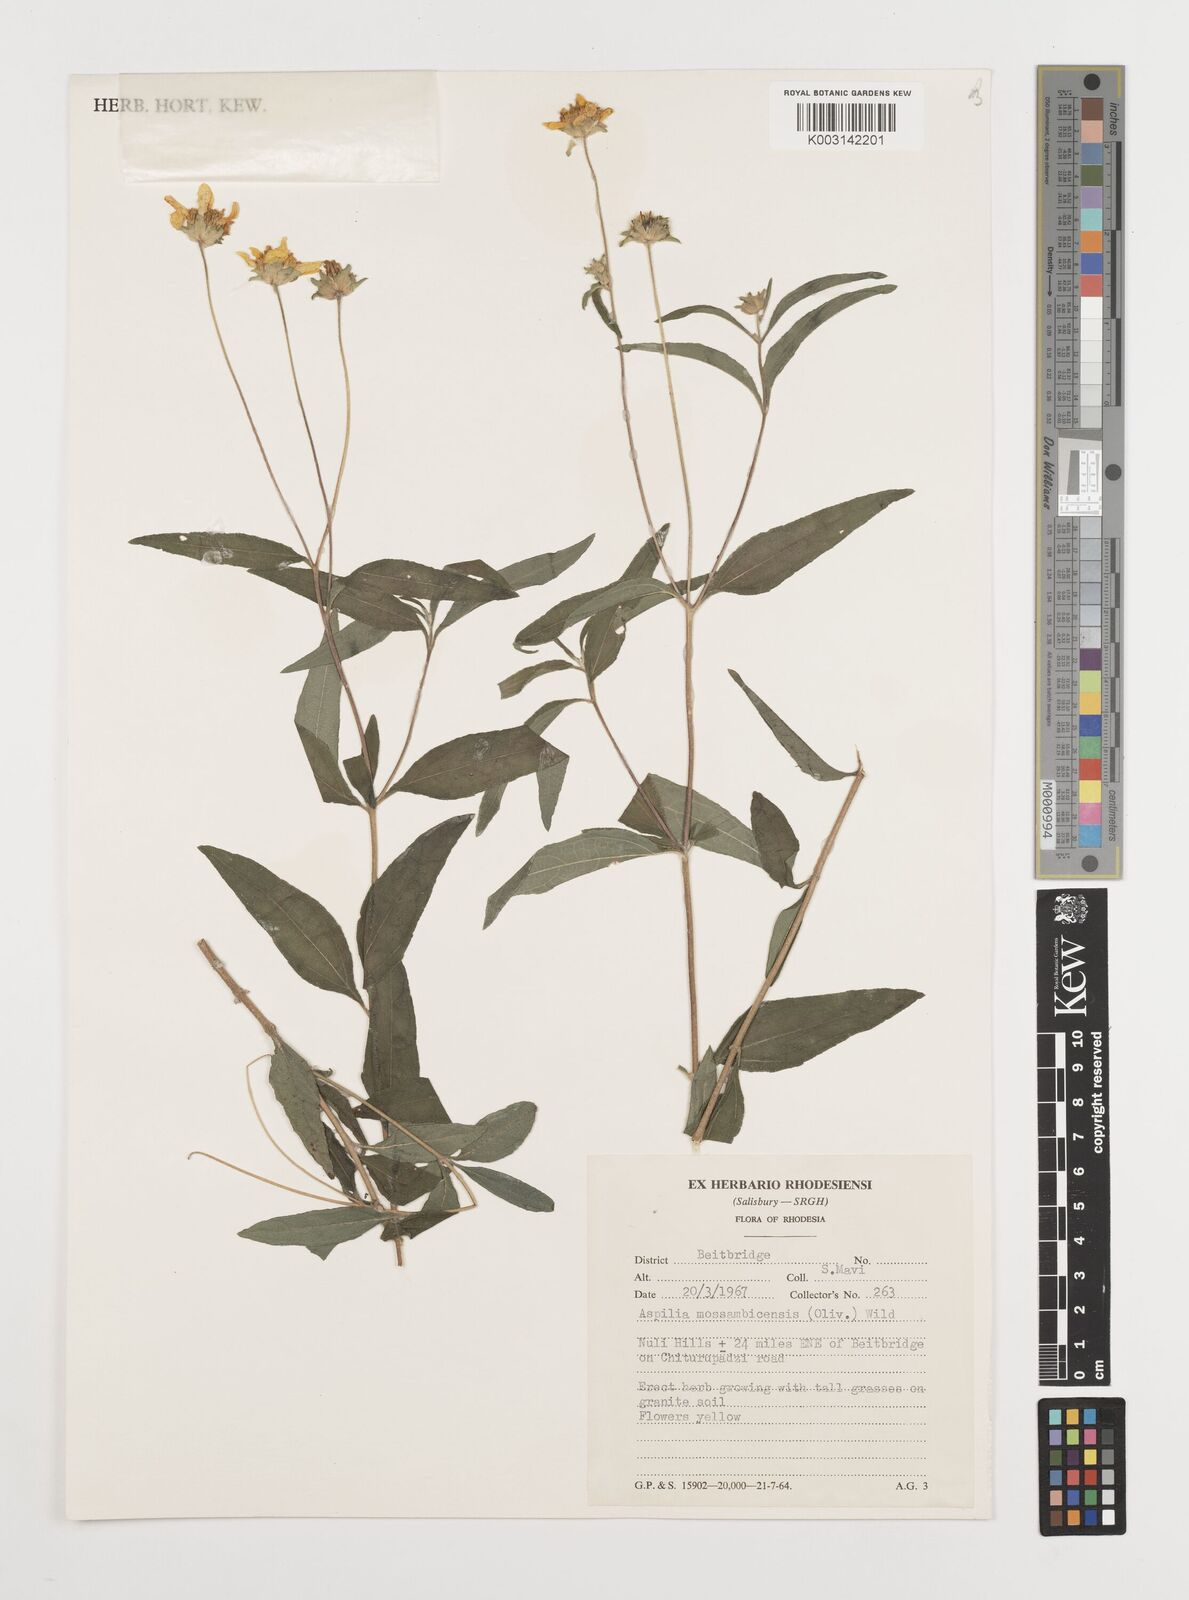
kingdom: Plantae
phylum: Tracheophyta
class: Magnoliopsida
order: Asterales
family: Asteraceae
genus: Aspilia
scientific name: Aspilia mossambicensis
